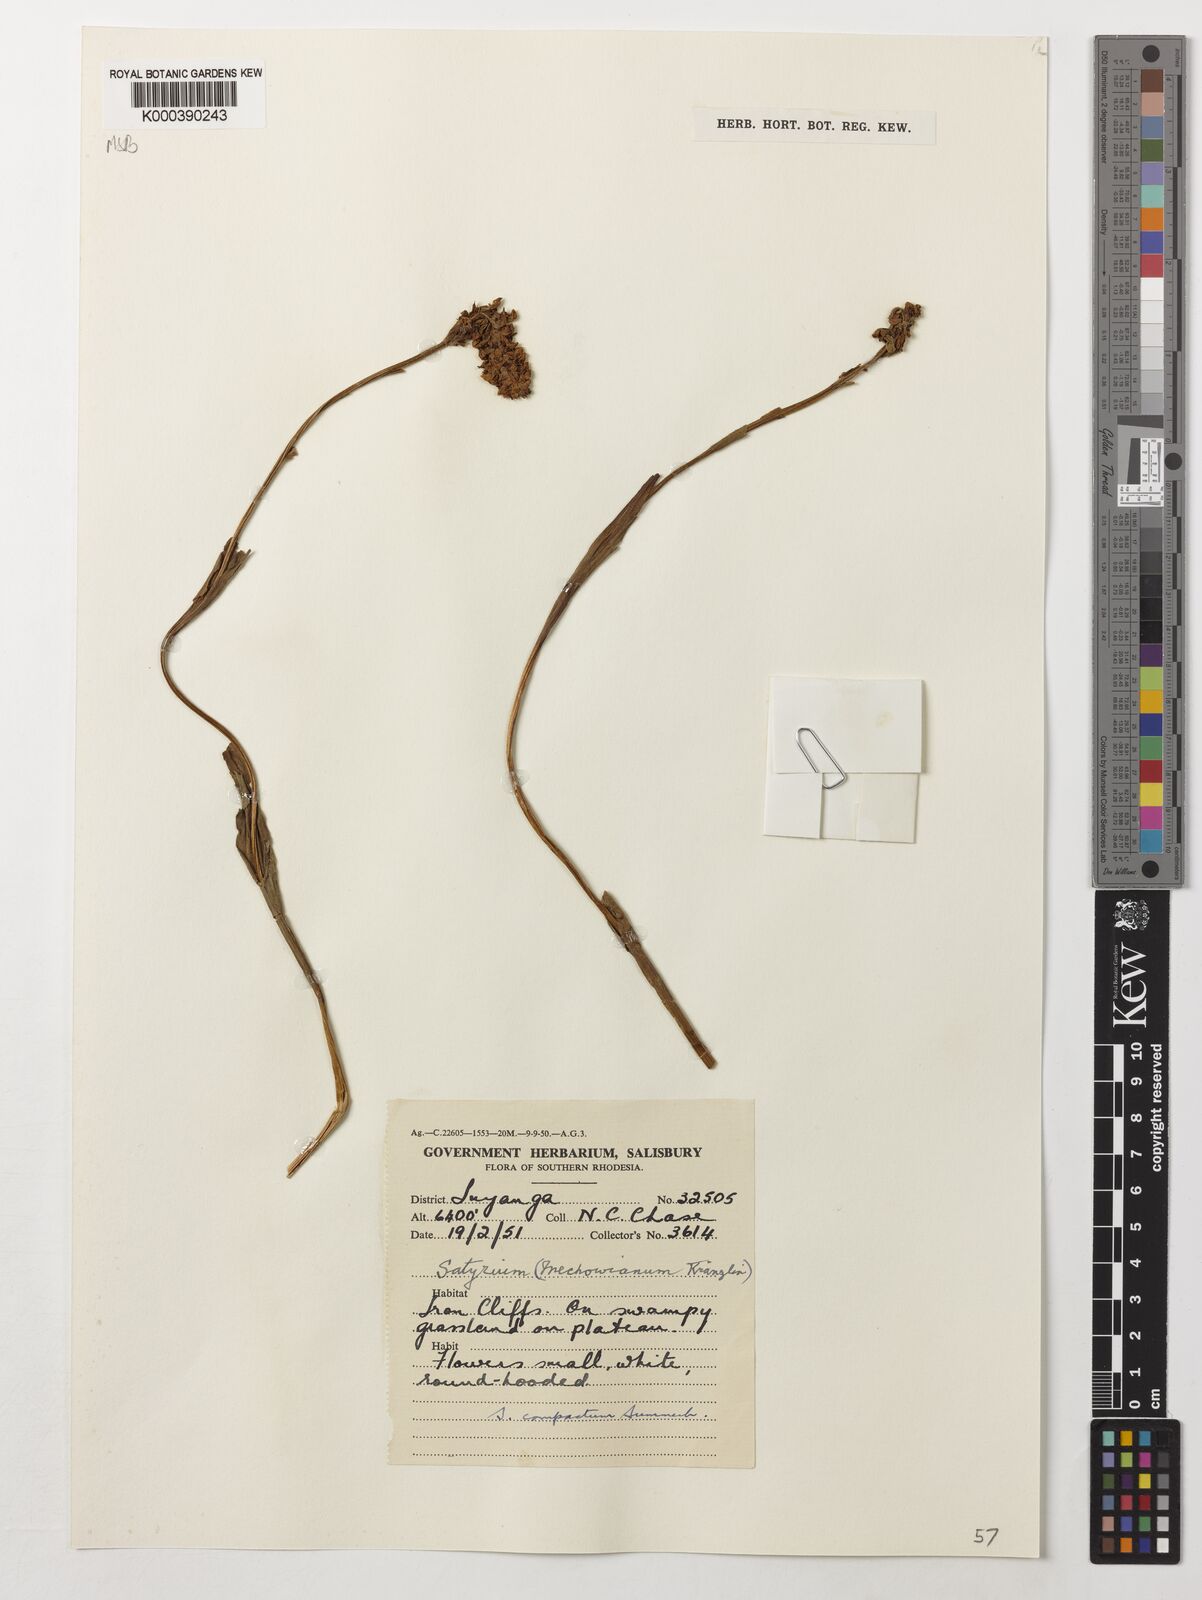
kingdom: Plantae
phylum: Tracheophyta
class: Liliopsida
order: Asparagales
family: Orchidaceae
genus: Satyrium
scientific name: Satyrium compactum
